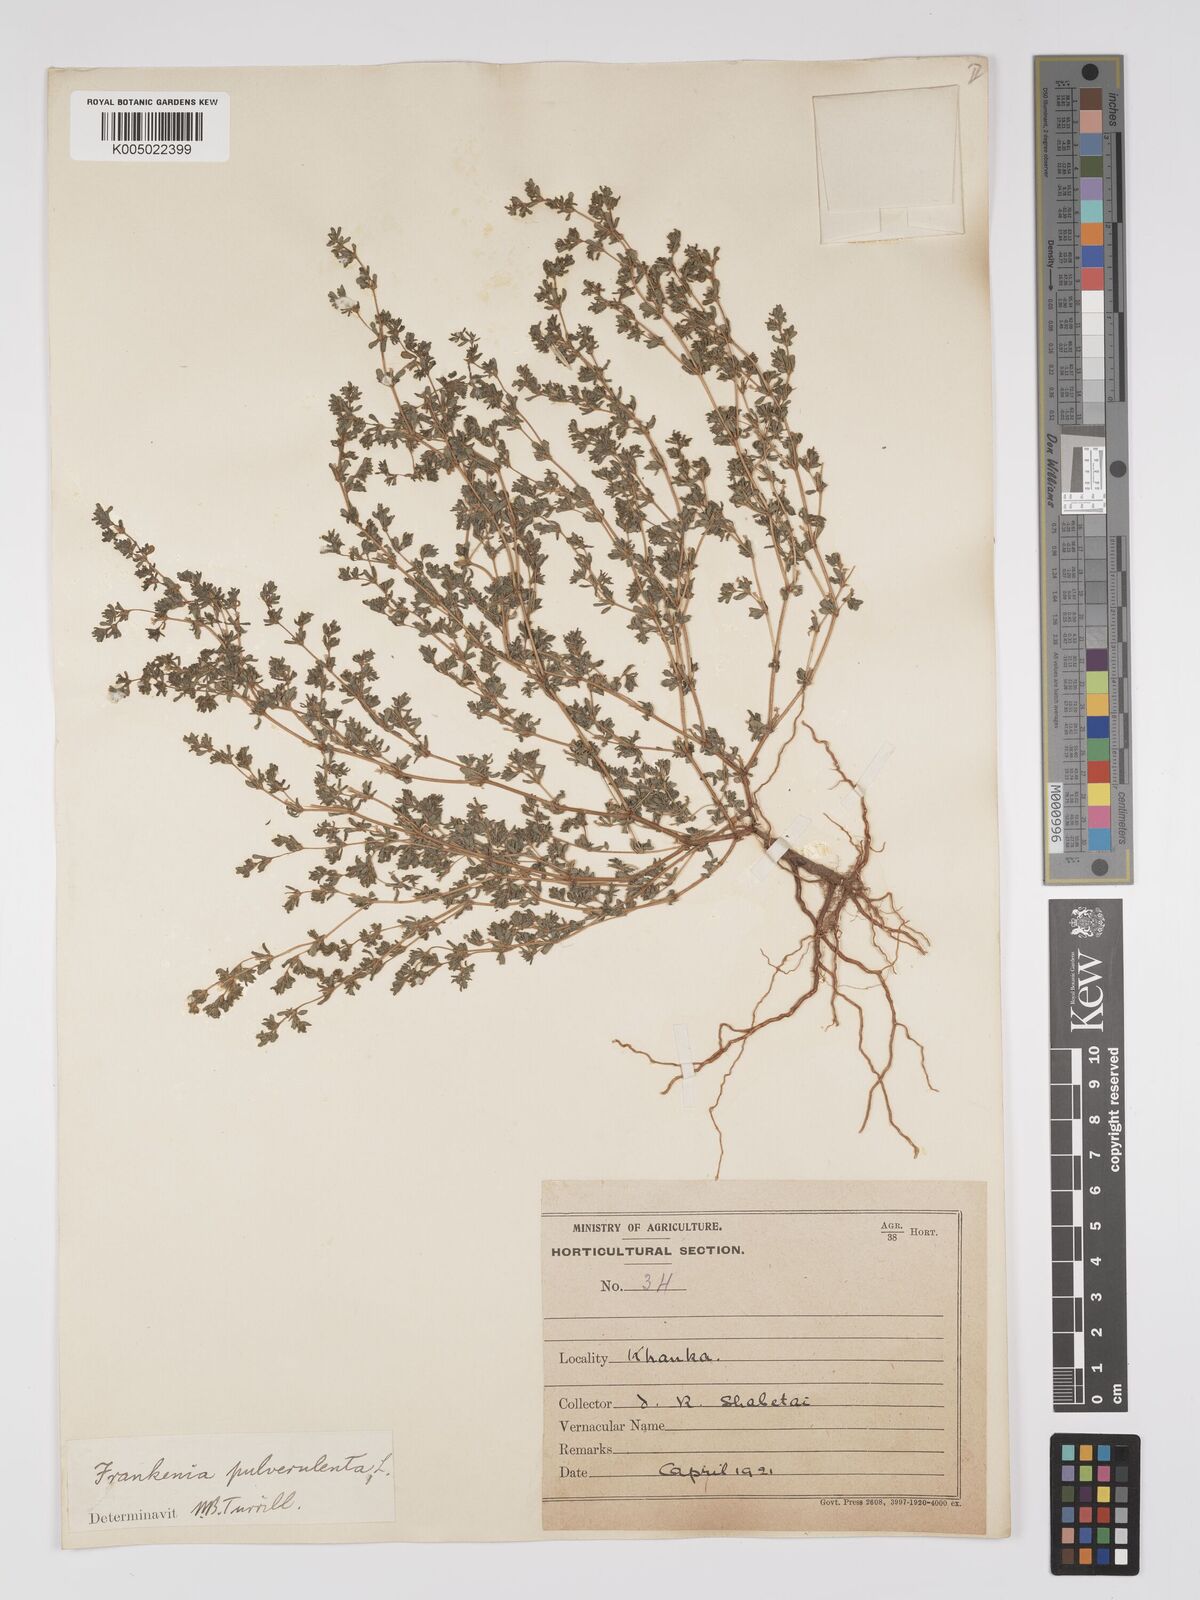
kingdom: Plantae
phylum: Tracheophyta
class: Magnoliopsida
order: Caryophyllales
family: Frankeniaceae
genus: Frankenia
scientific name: Frankenia pulverulenta
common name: European seaheath
